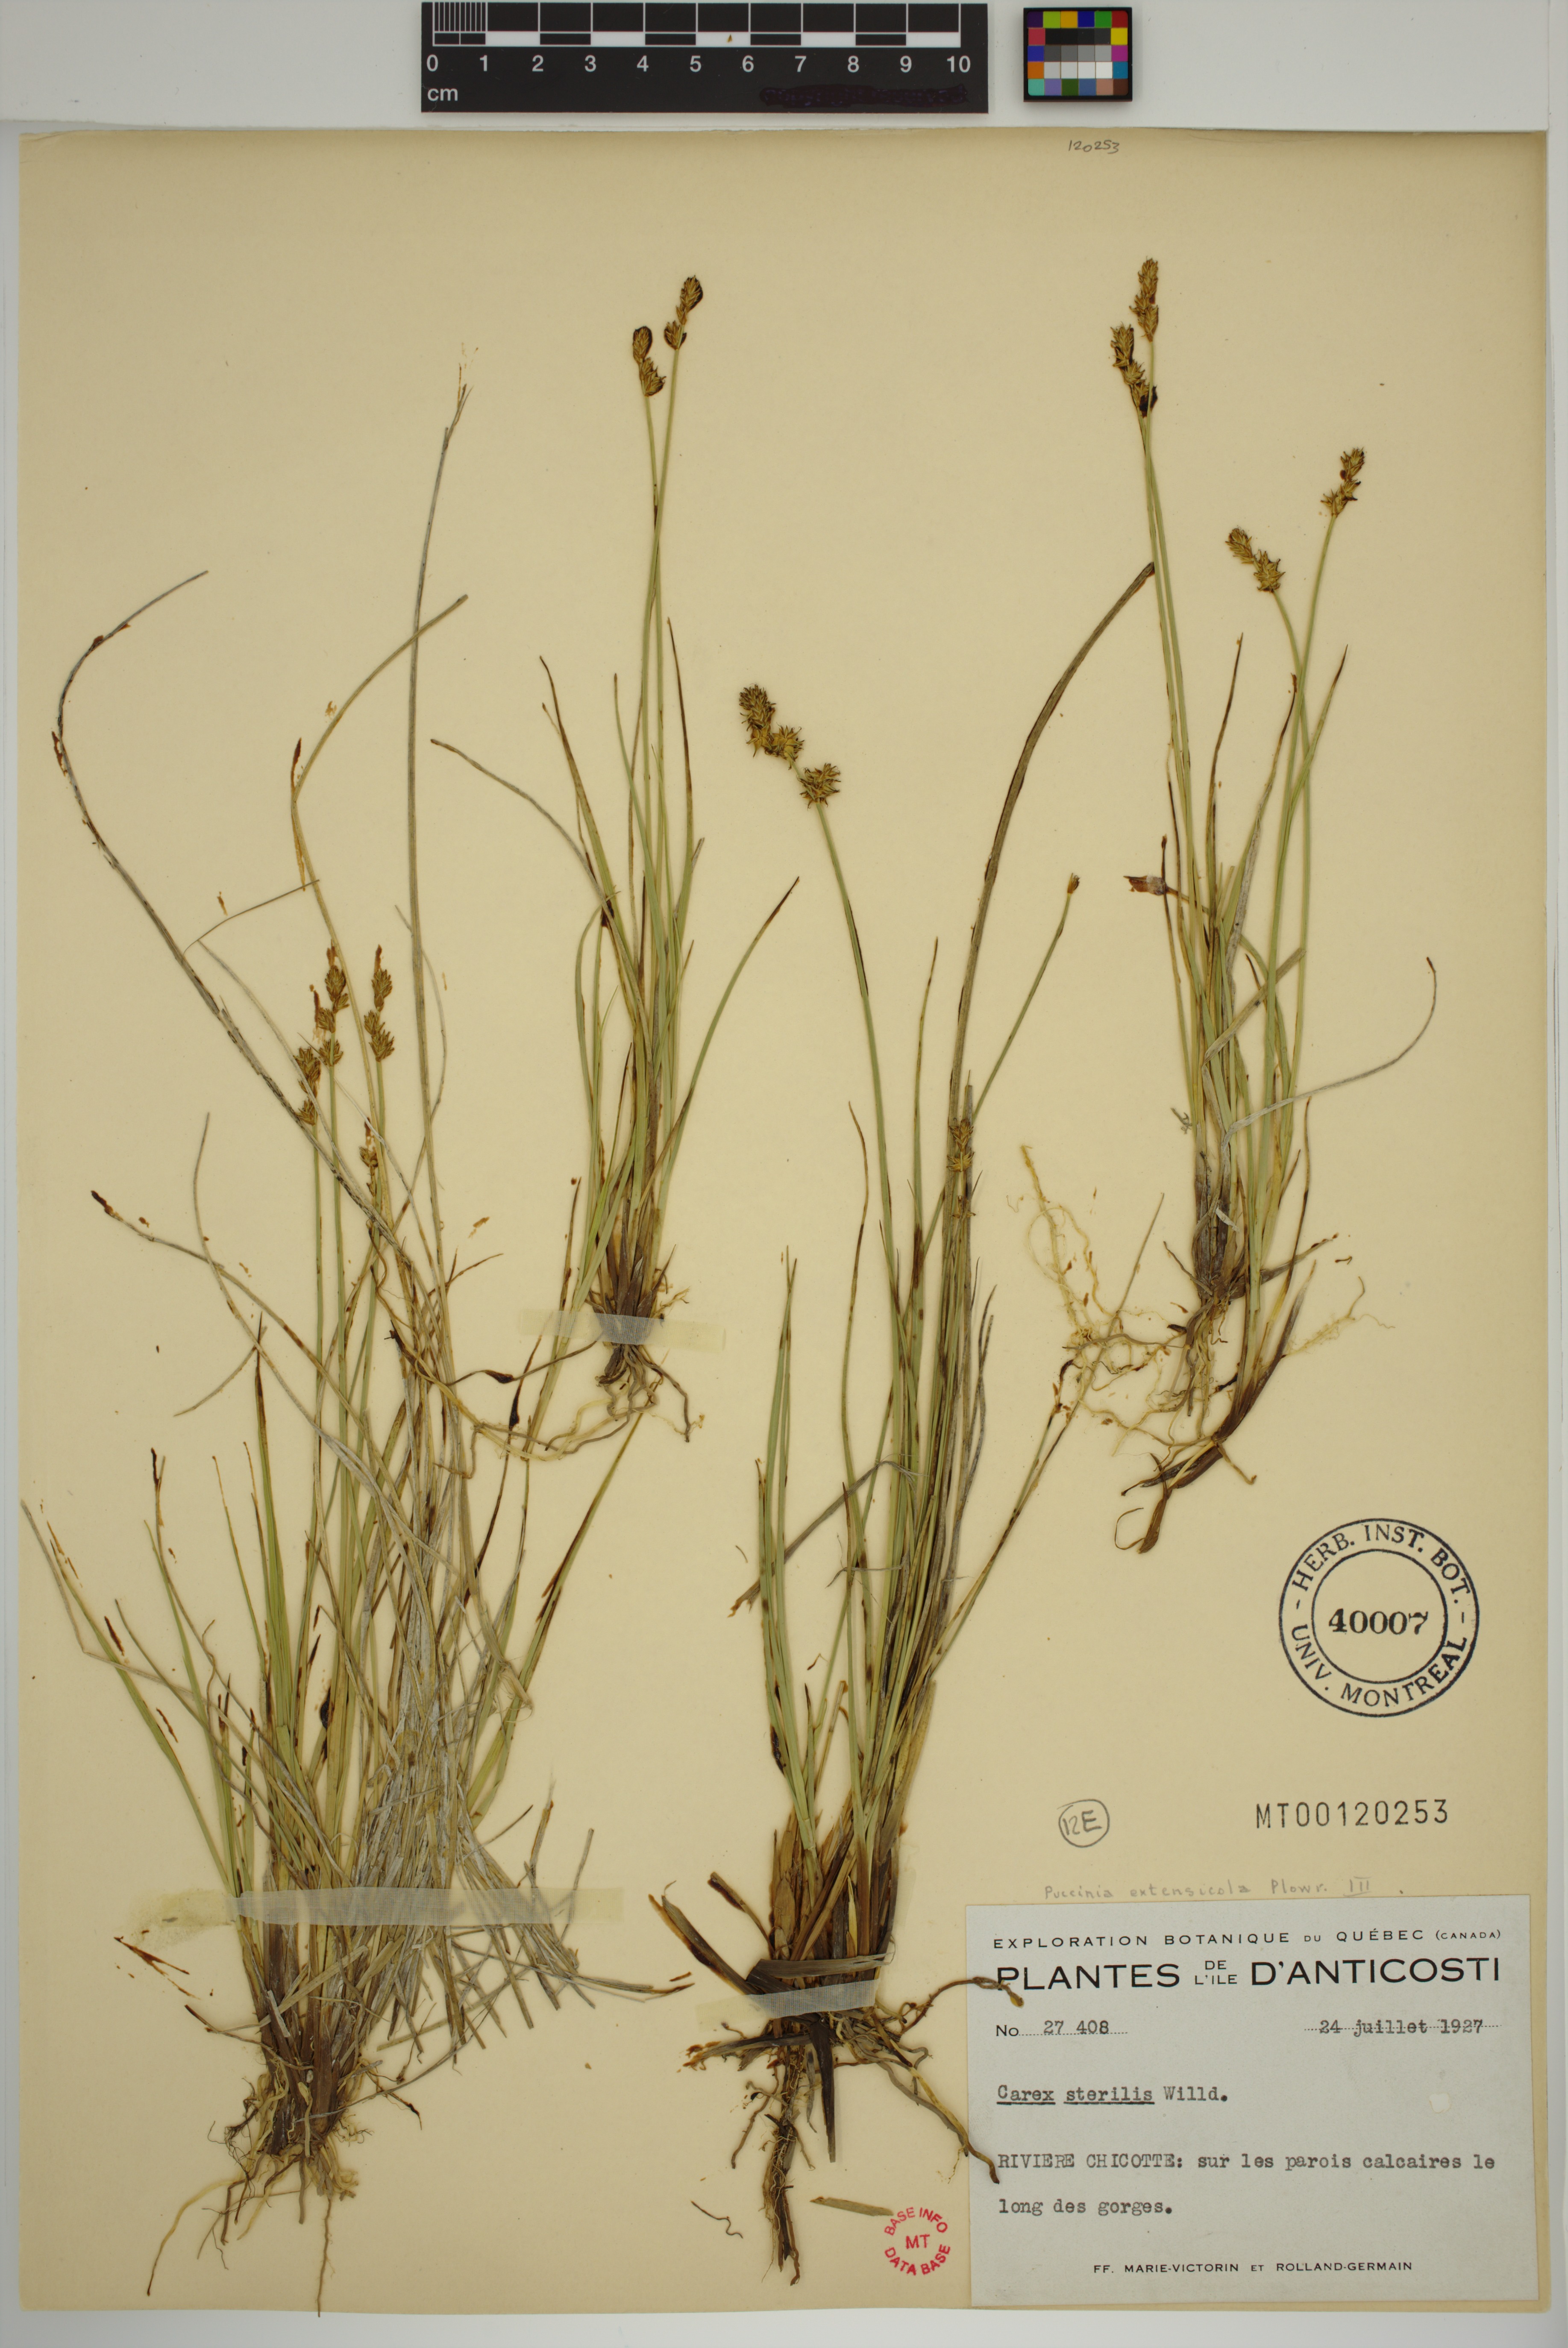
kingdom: Plantae
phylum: Tracheophyta
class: Liliopsida
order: Poales
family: Cyperaceae
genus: Carex
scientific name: Carex sterilis
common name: Dioecious sedge
